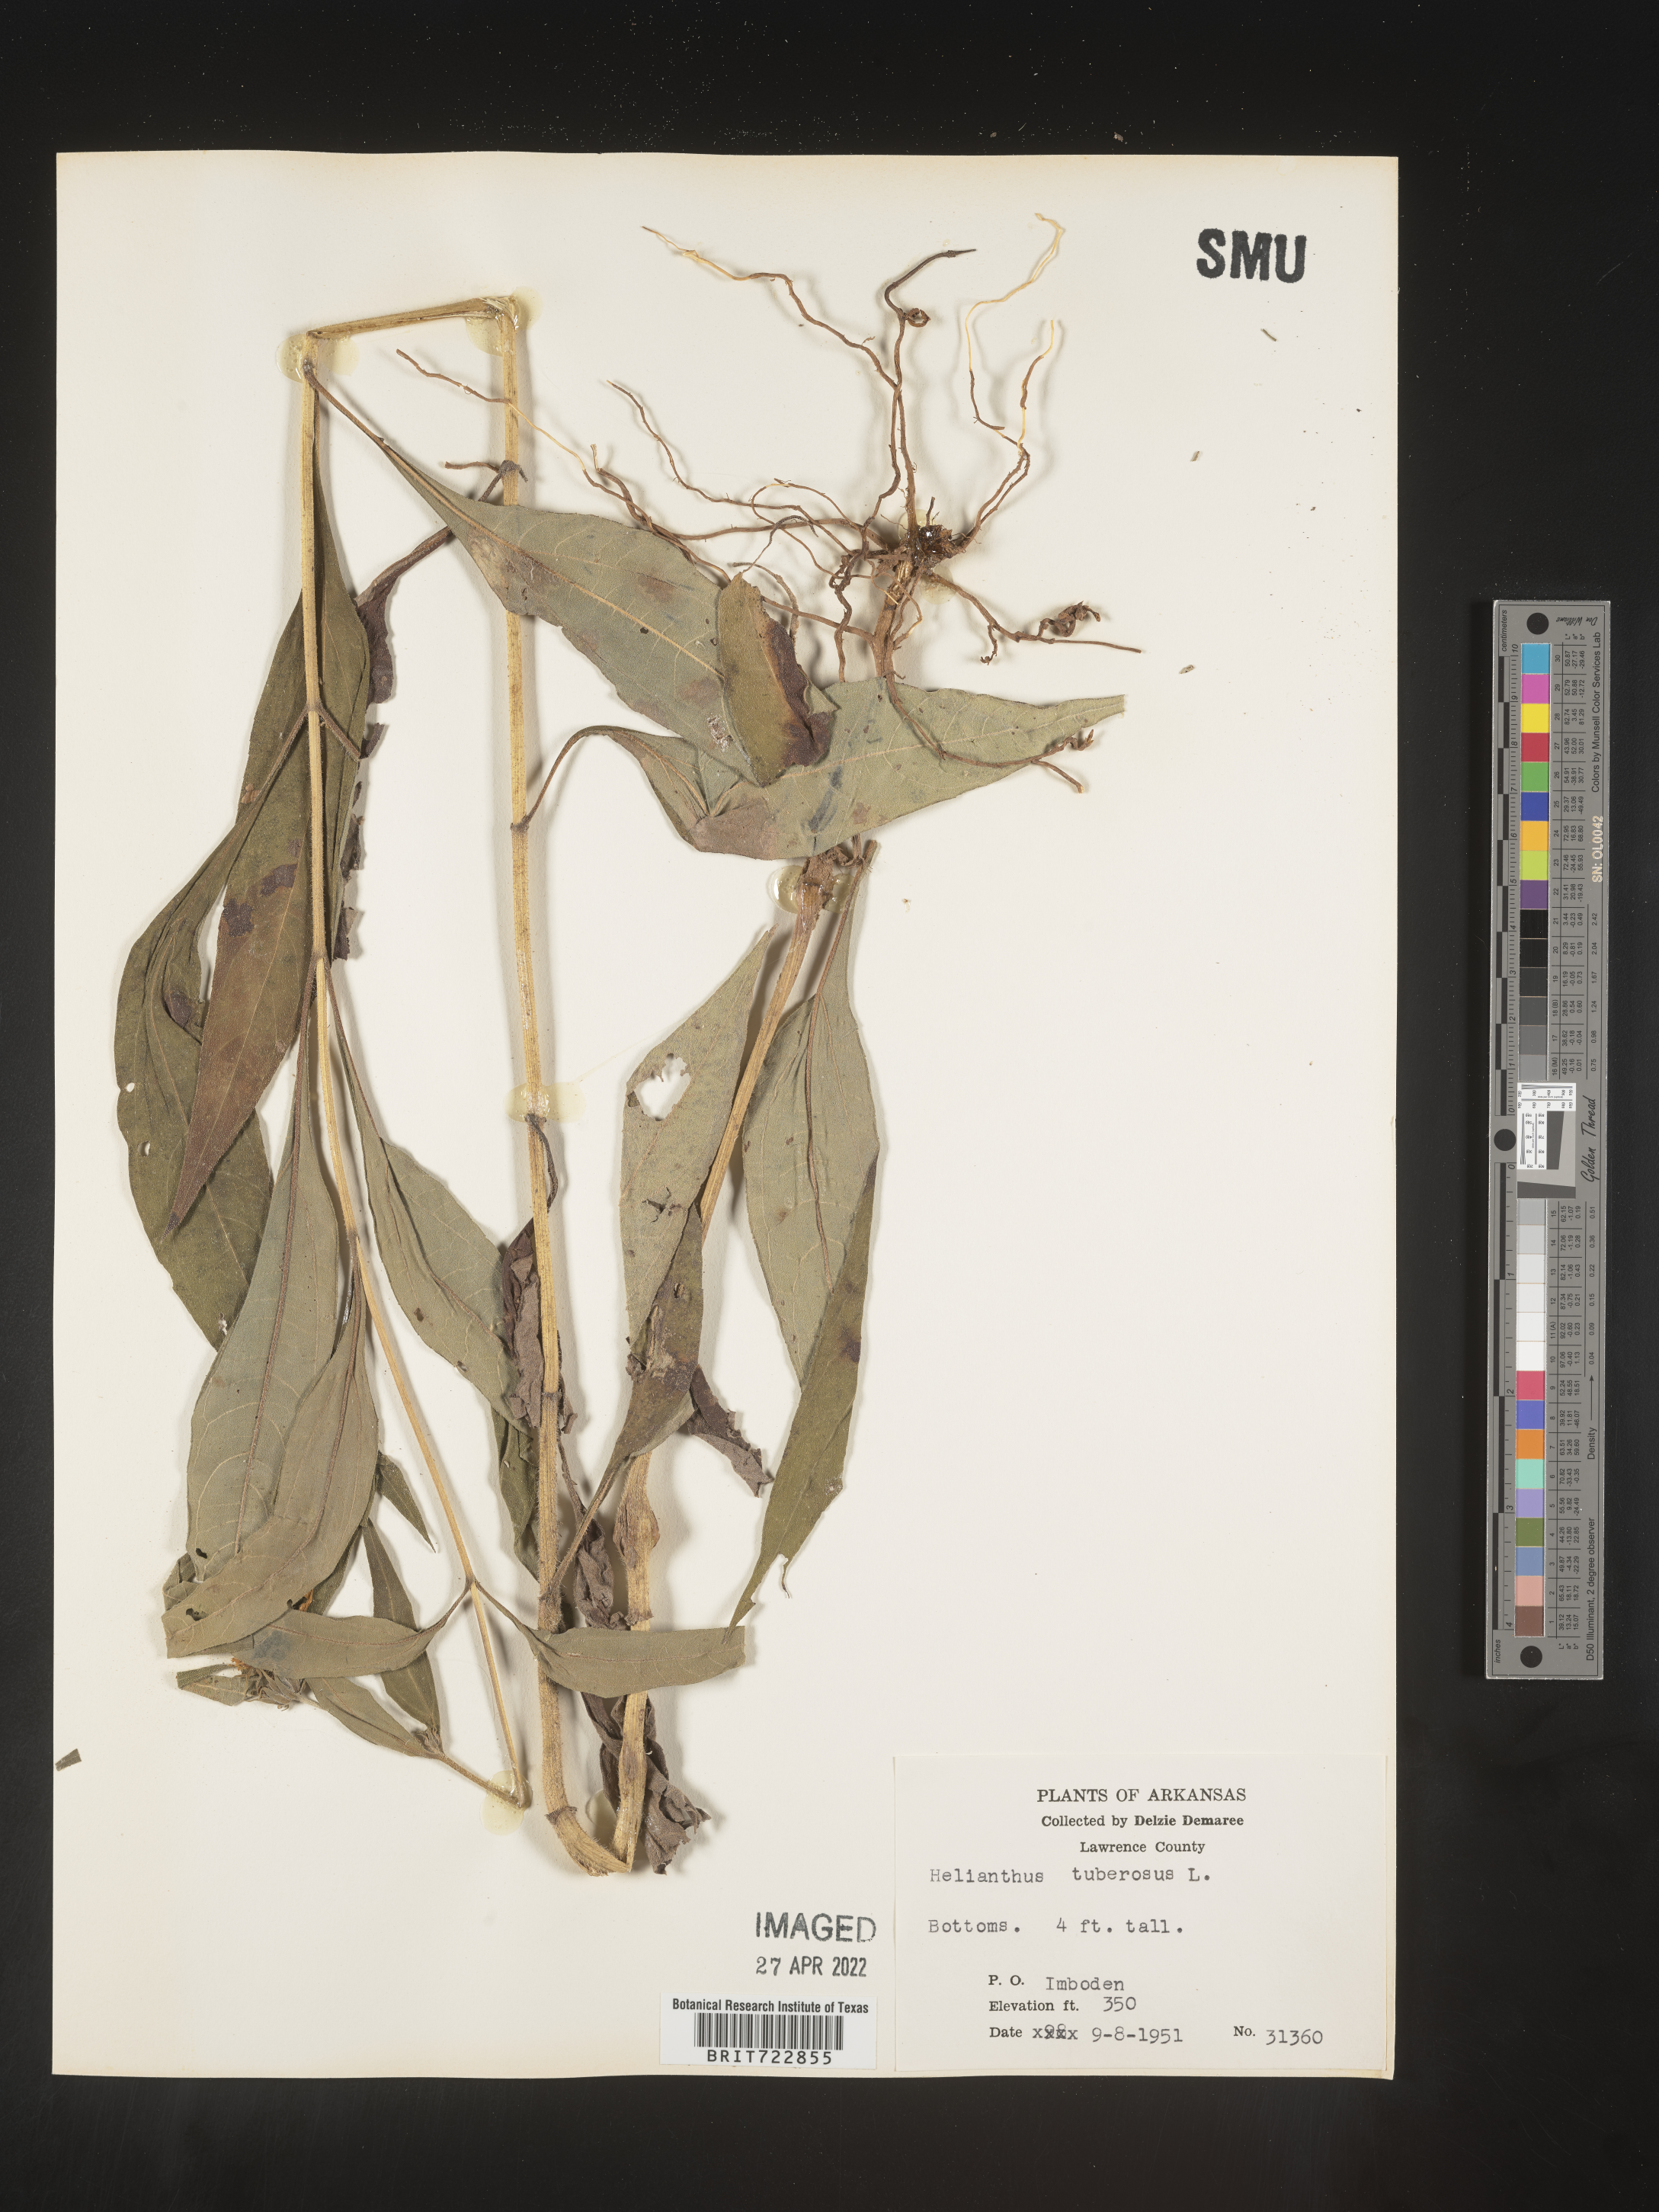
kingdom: Plantae
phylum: Tracheophyta
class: Magnoliopsida
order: Asterales
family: Asteraceae
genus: Helianthus
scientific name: Helianthus tuberosus
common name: Jerusalem artichoke
